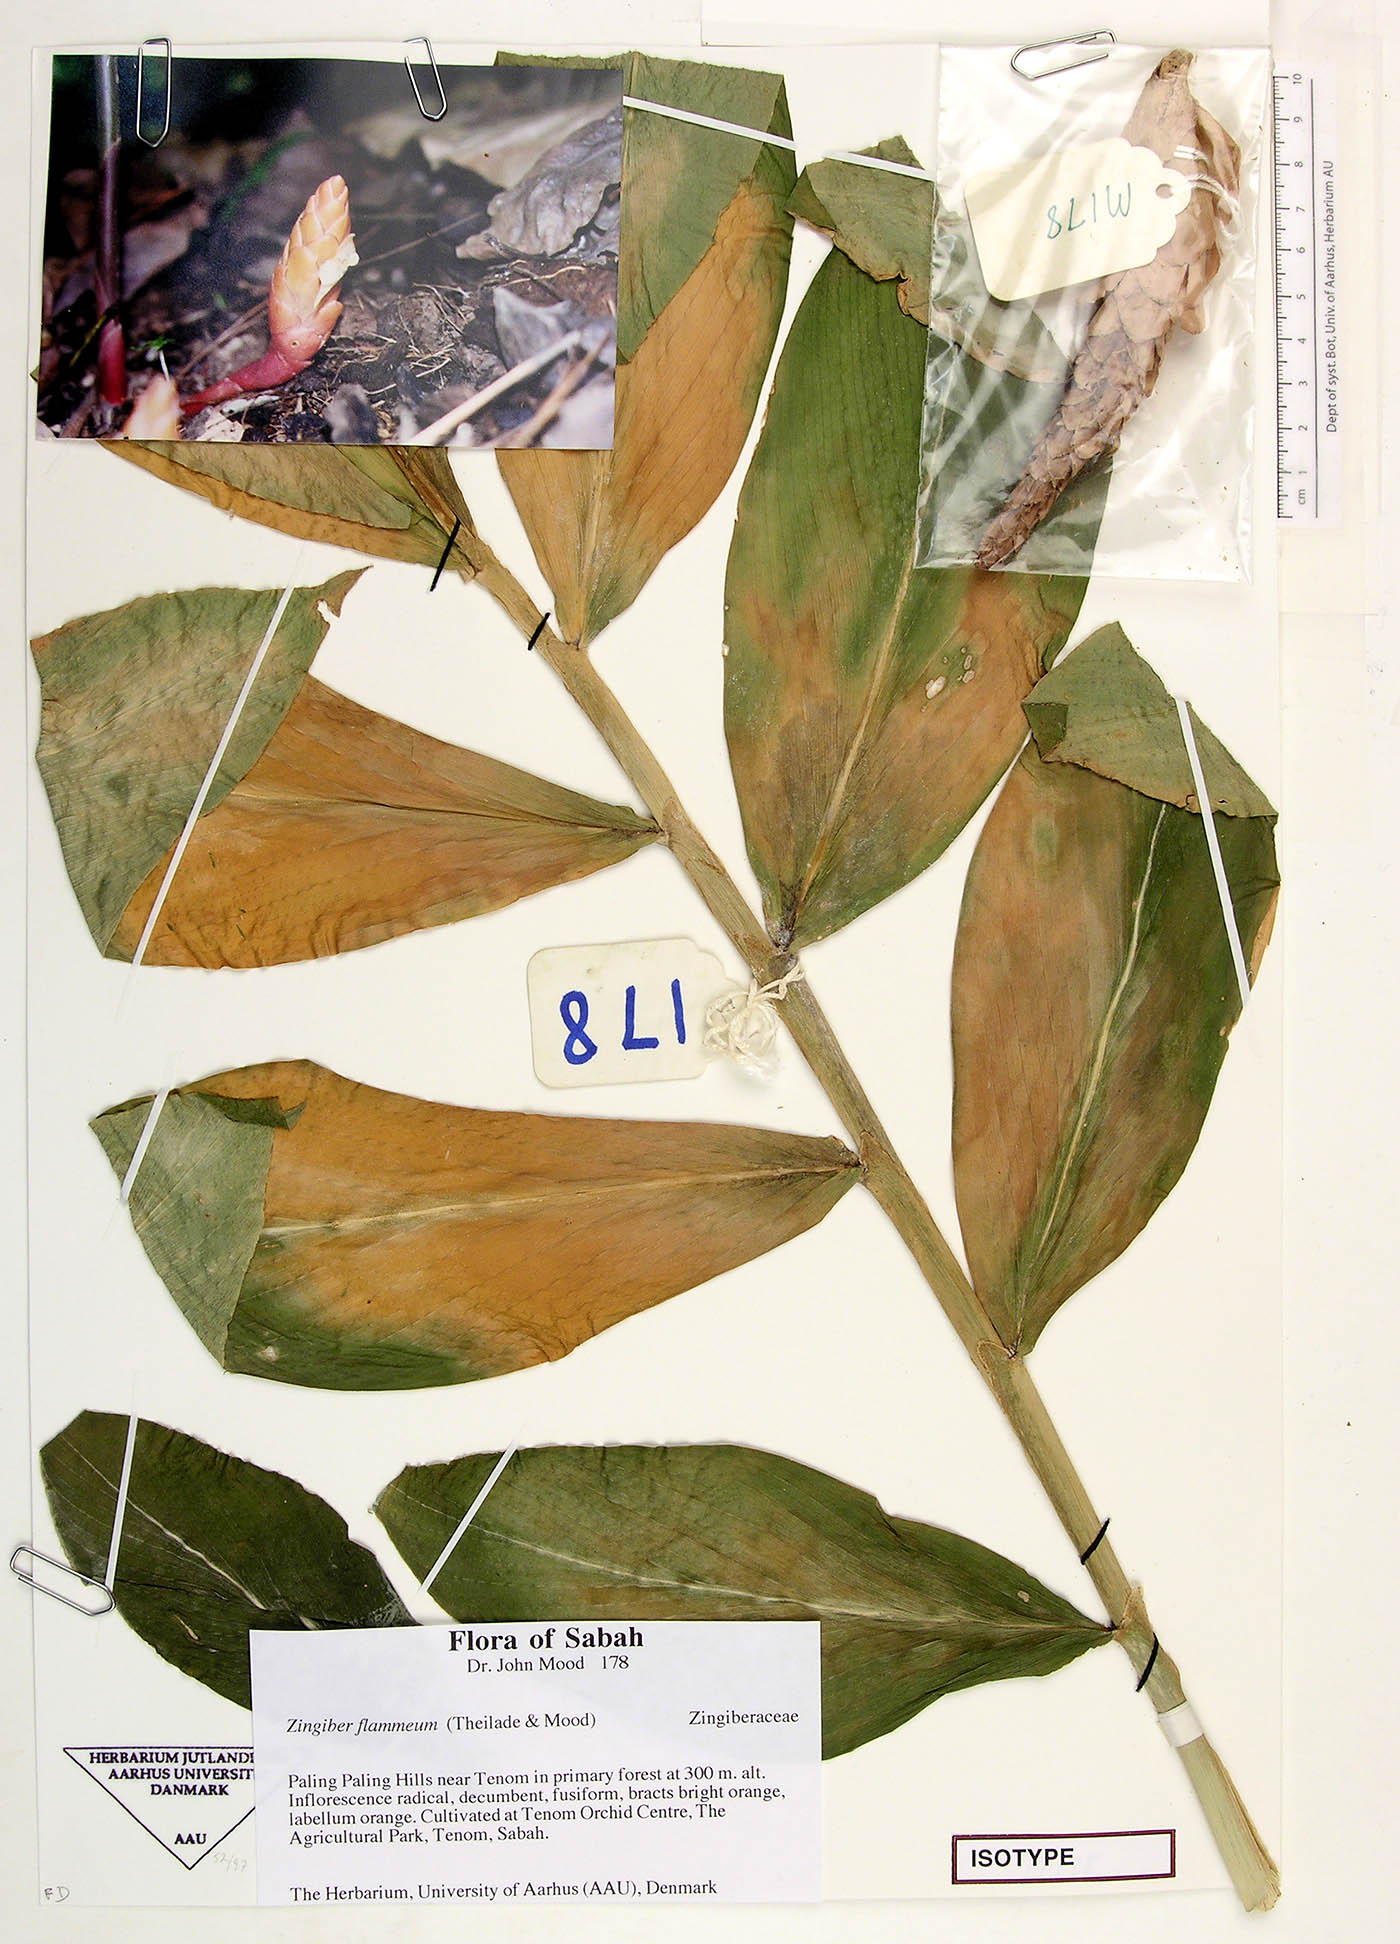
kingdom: Plantae
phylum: Tracheophyta
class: Liliopsida
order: Zingiberales
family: Zingiberaceae
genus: Zingiber
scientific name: Zingiber flammeum
